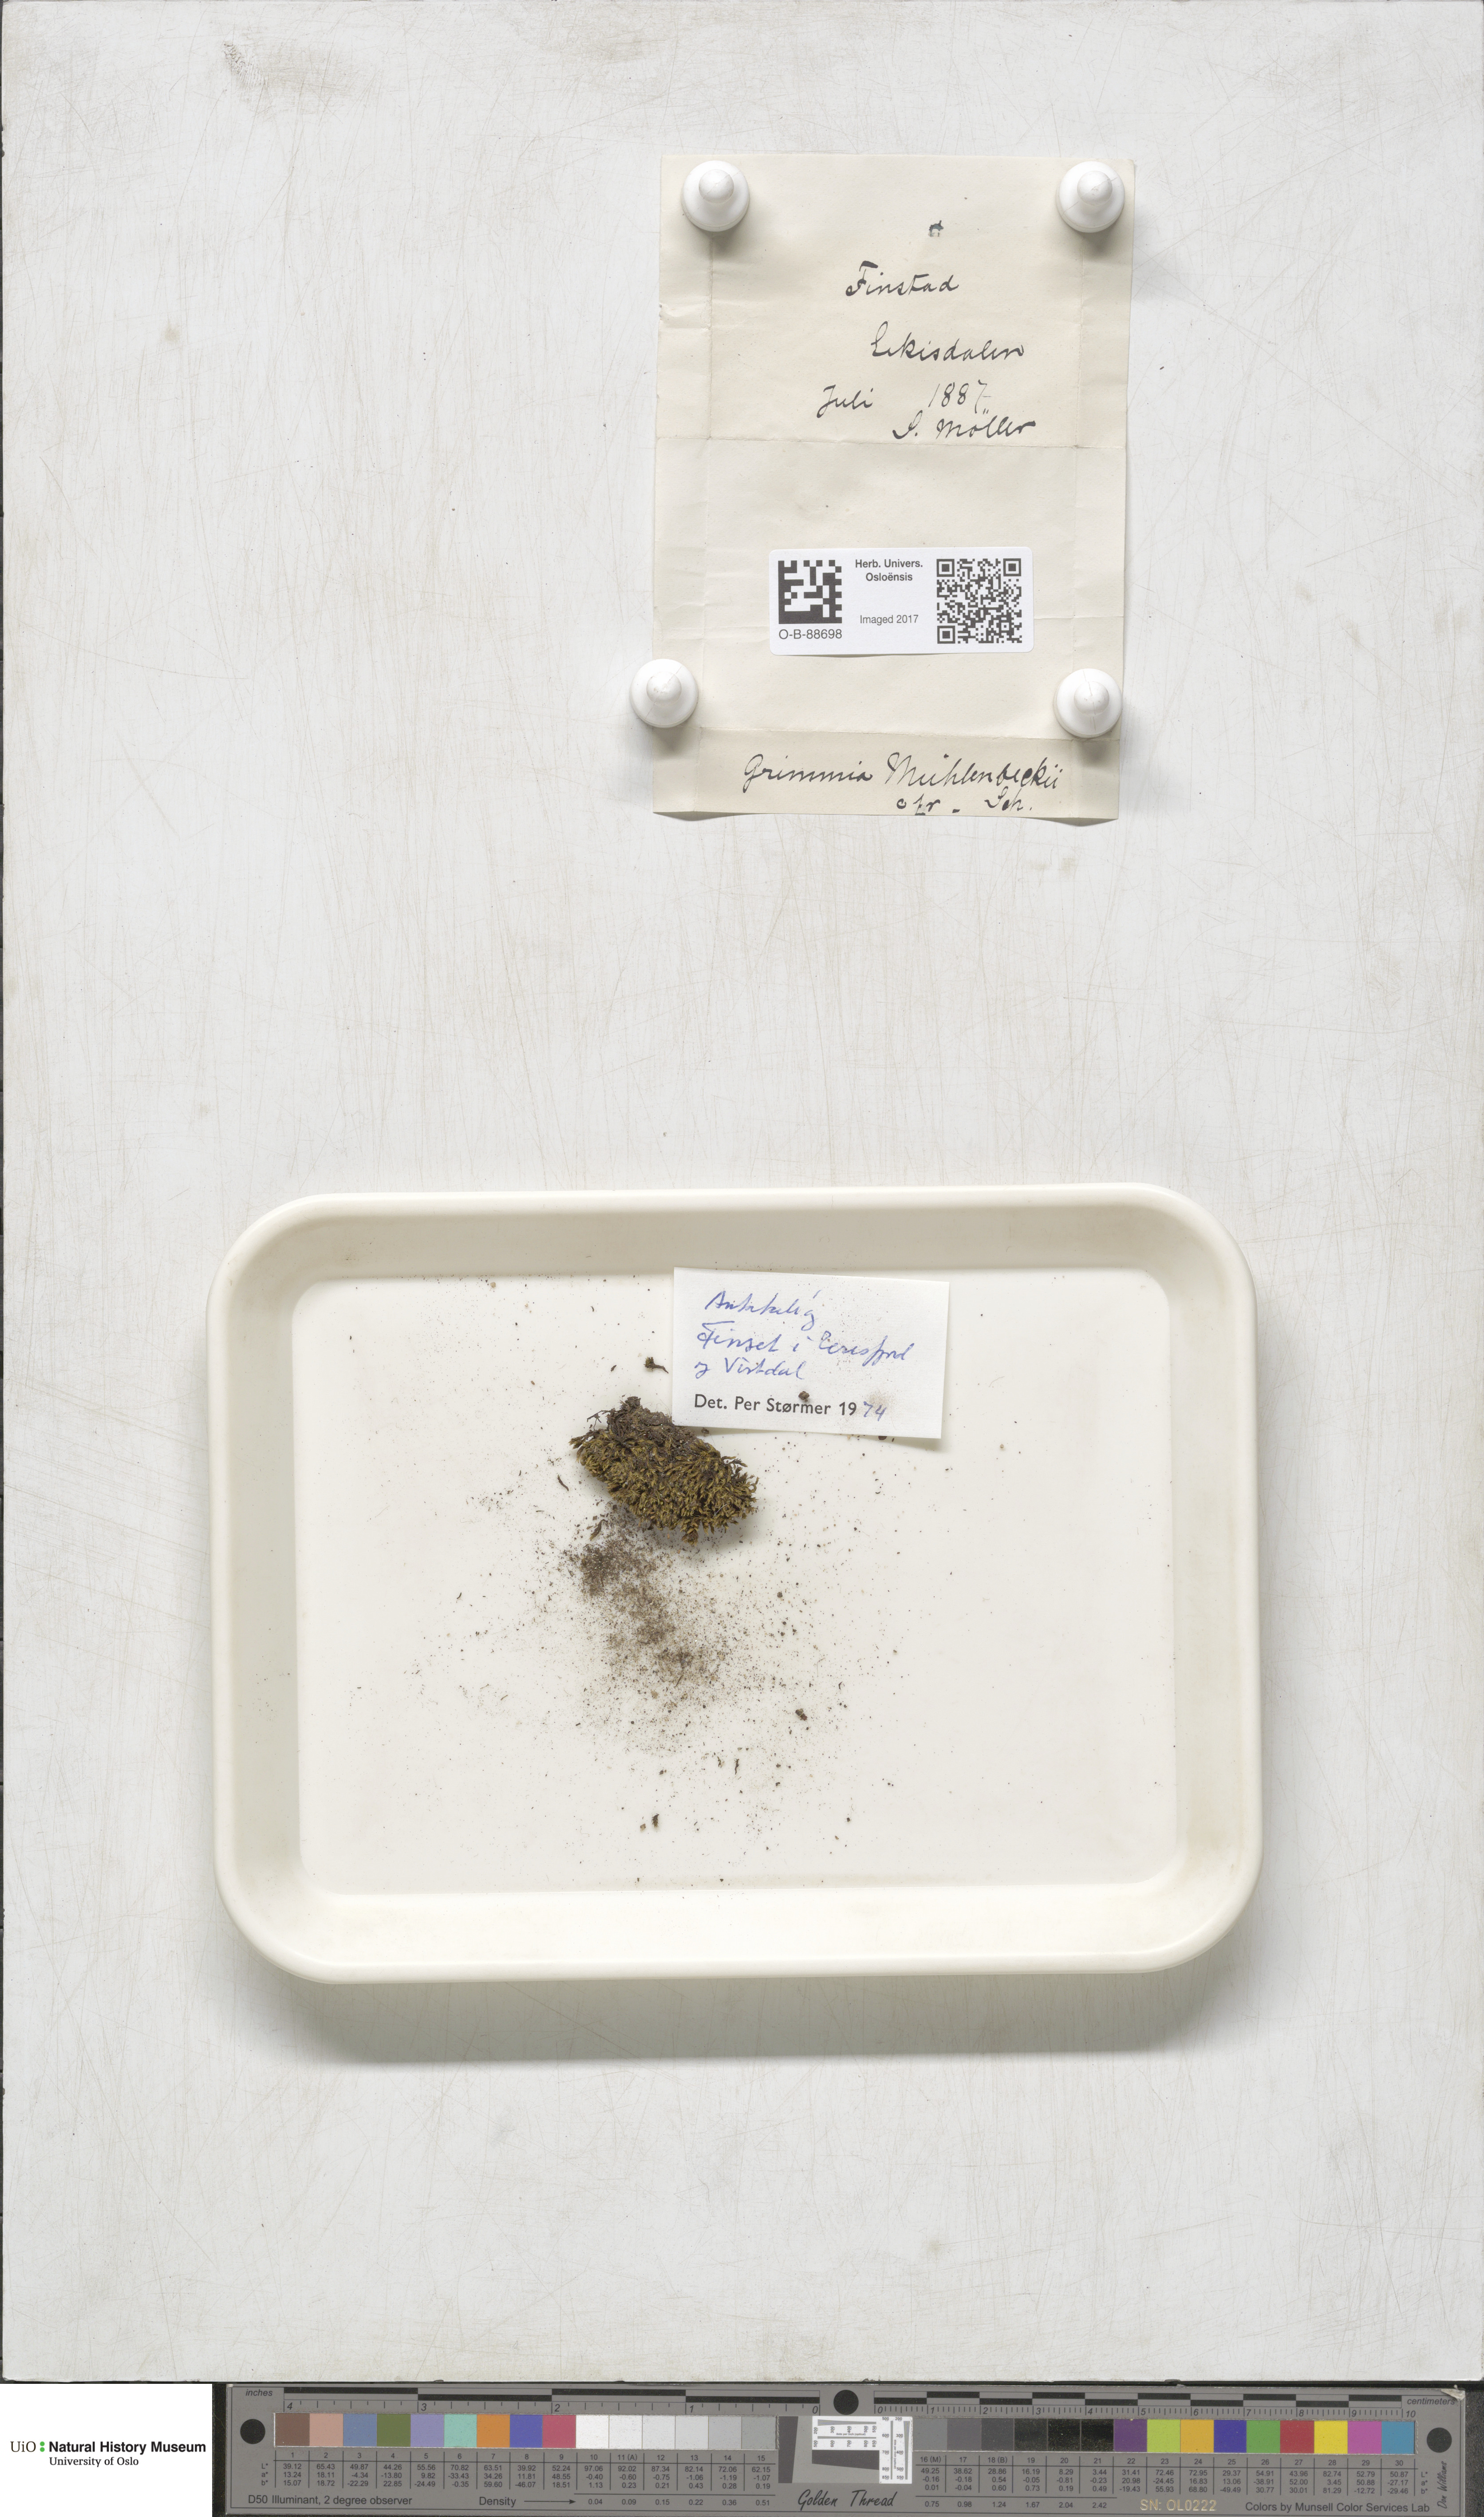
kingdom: Plantae
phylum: Bryophyta
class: Bryopsida
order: Grimmiales
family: Grimmiaceae
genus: Grimmia
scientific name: Grimmia trichophylla
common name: Hair-pointed grimmia
